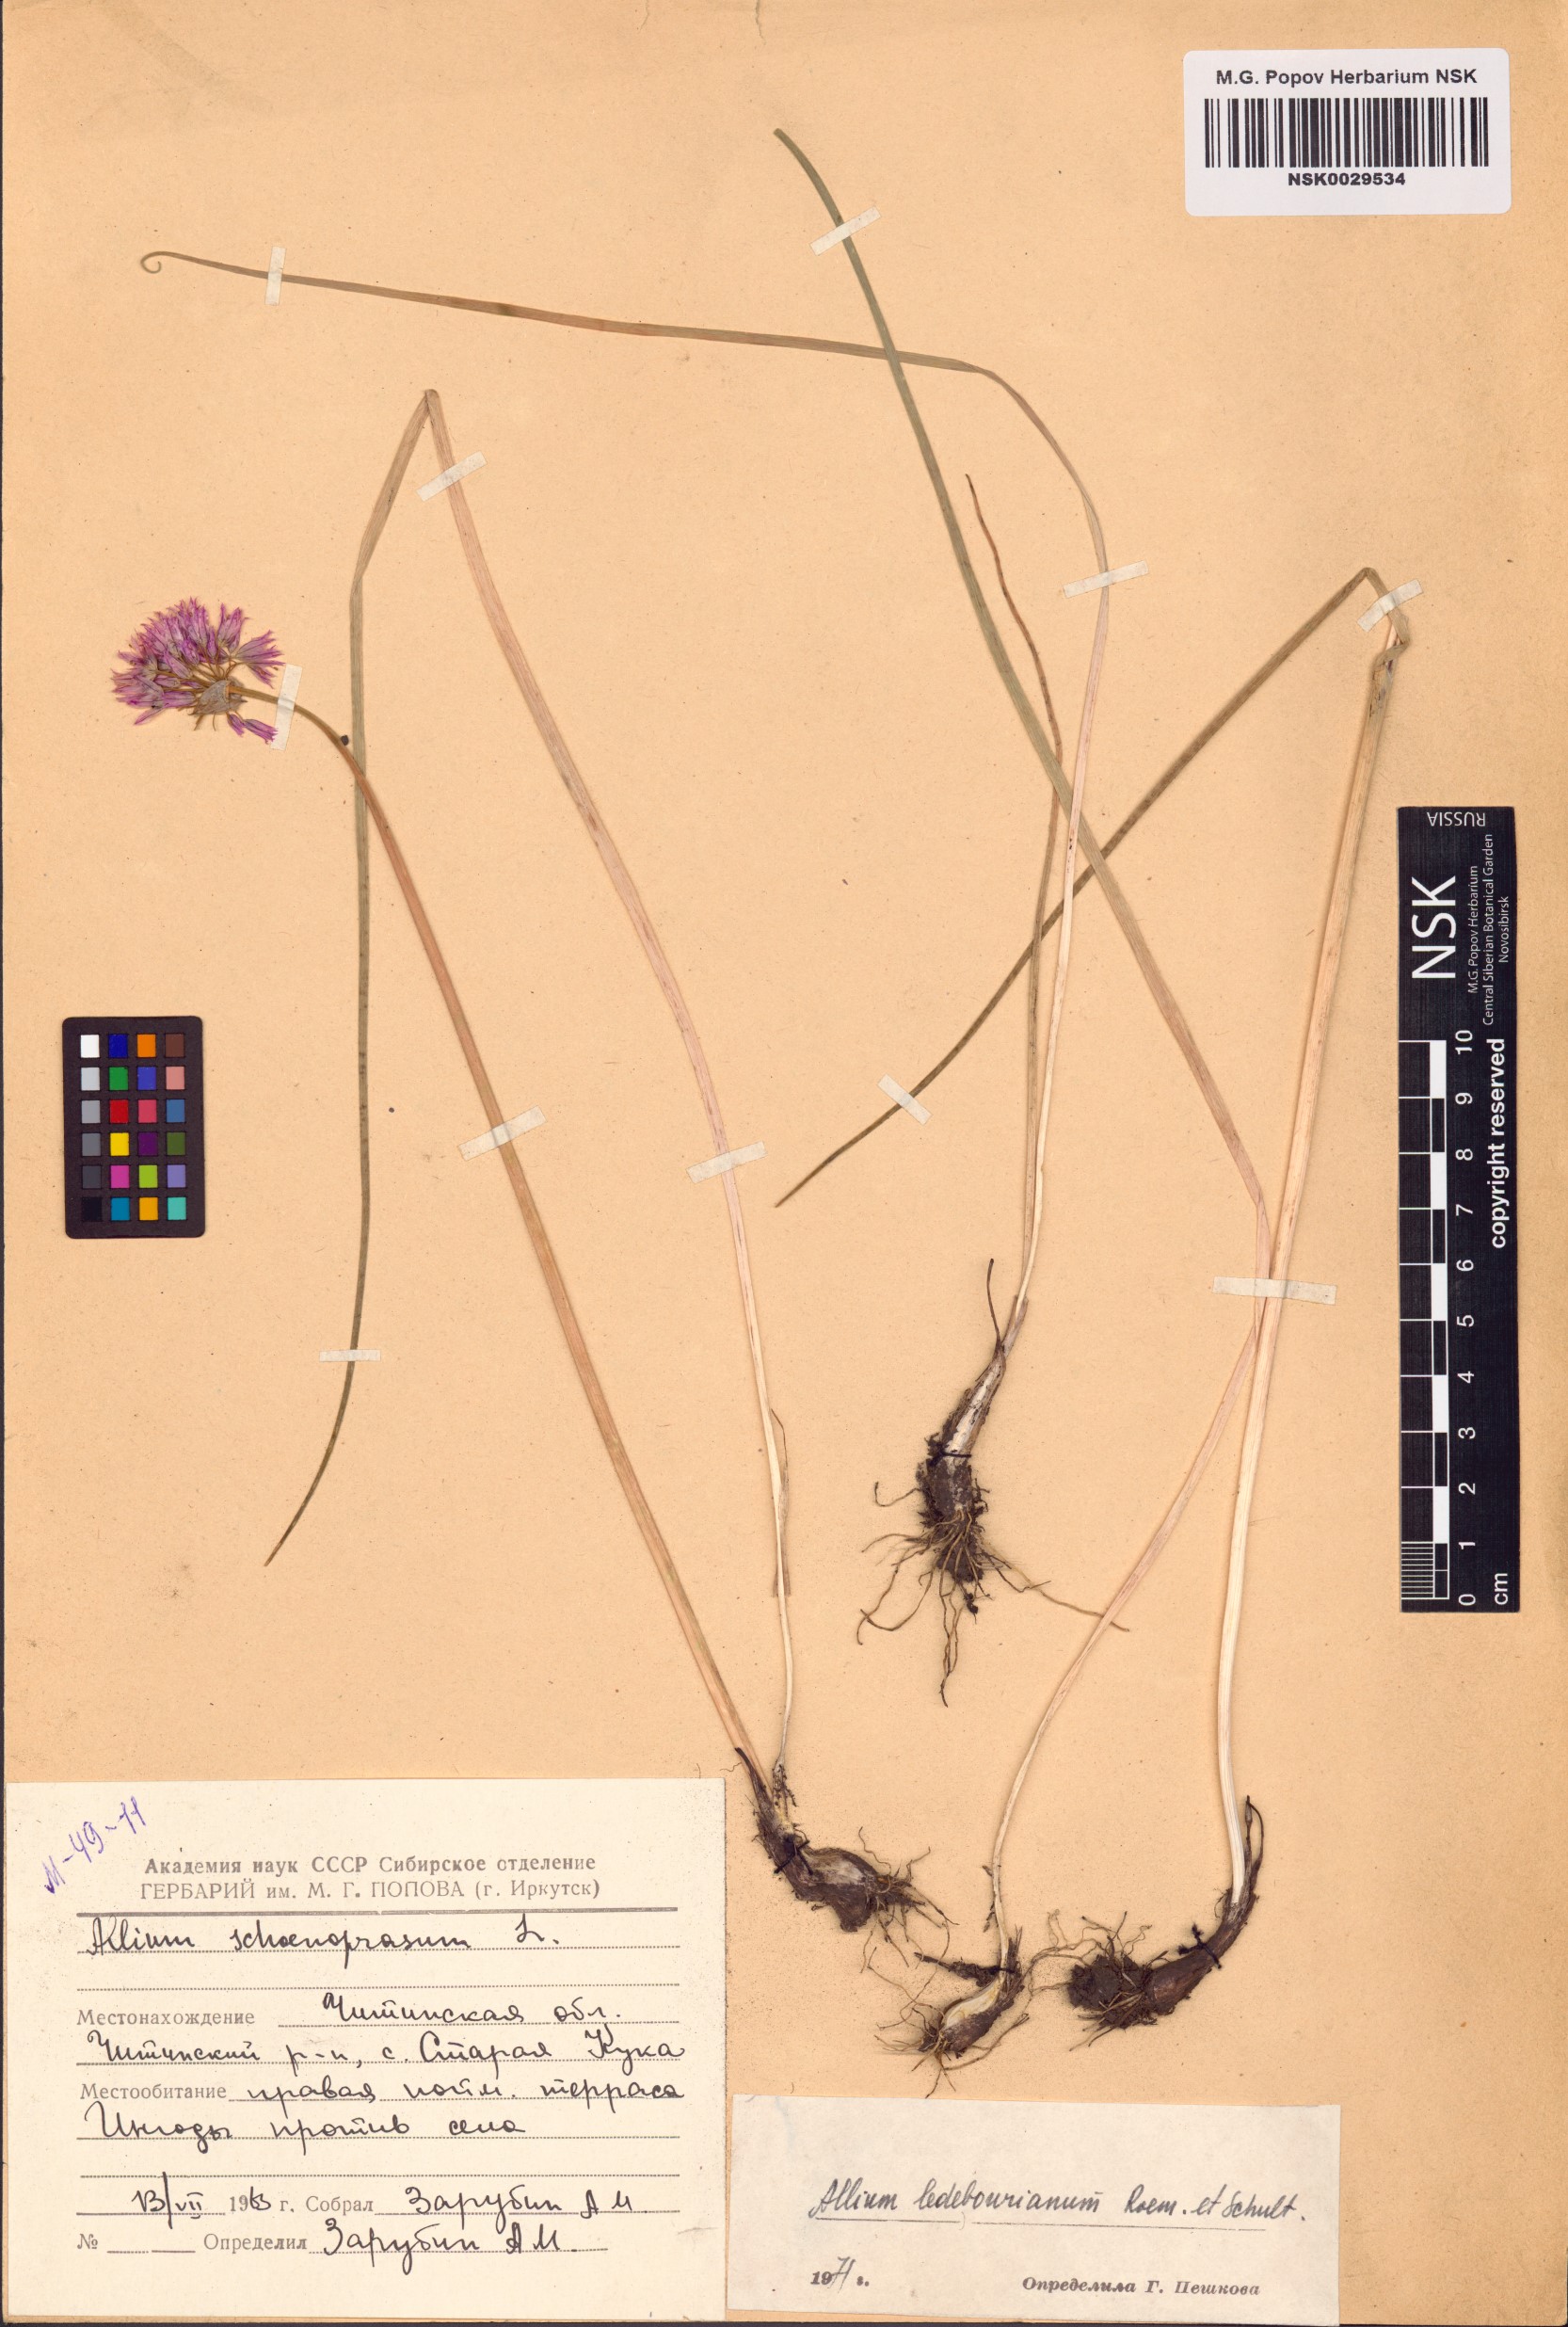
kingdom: Plantae
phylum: Tracheophyta
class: Liliopsida
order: Asparagales
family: Amaryllidaceae
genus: Allium
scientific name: Allium ledebourianum
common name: Ledebour chive
